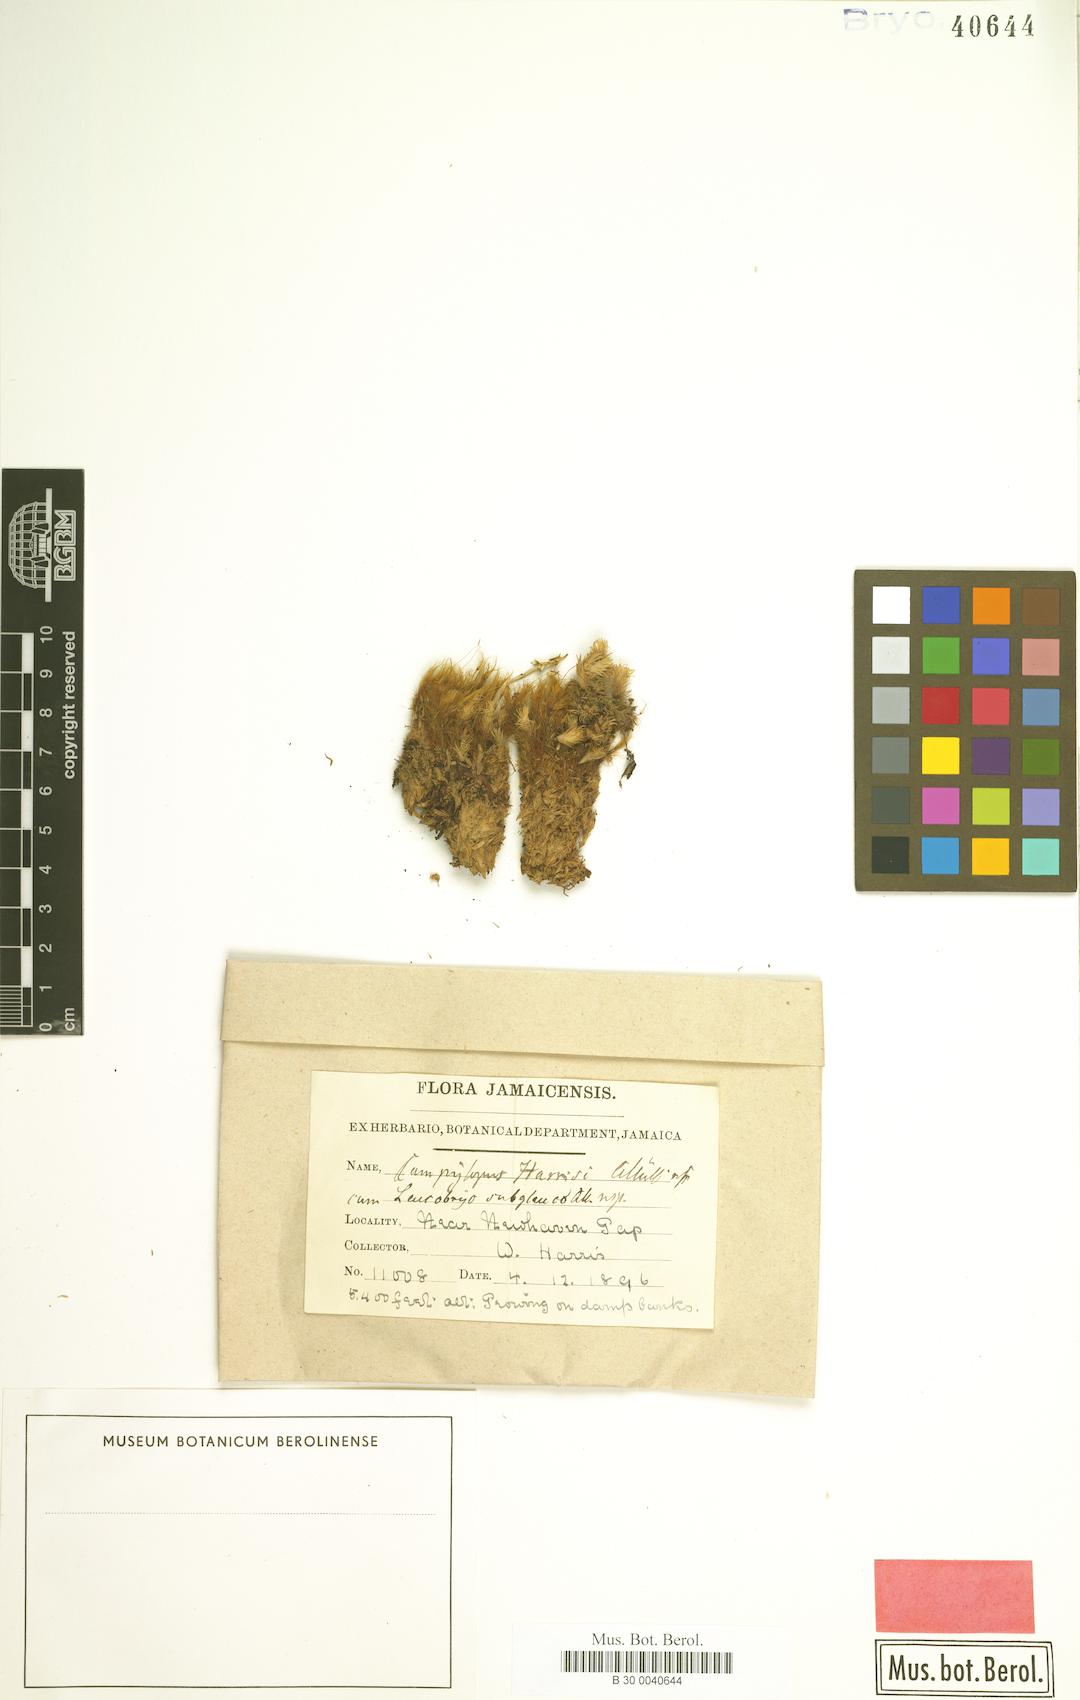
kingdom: Plantae
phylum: Bryophyta
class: Bryopsida
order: Dicranales
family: Leucobryaceae
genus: Campylopus
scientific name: Campylopus cubensis
